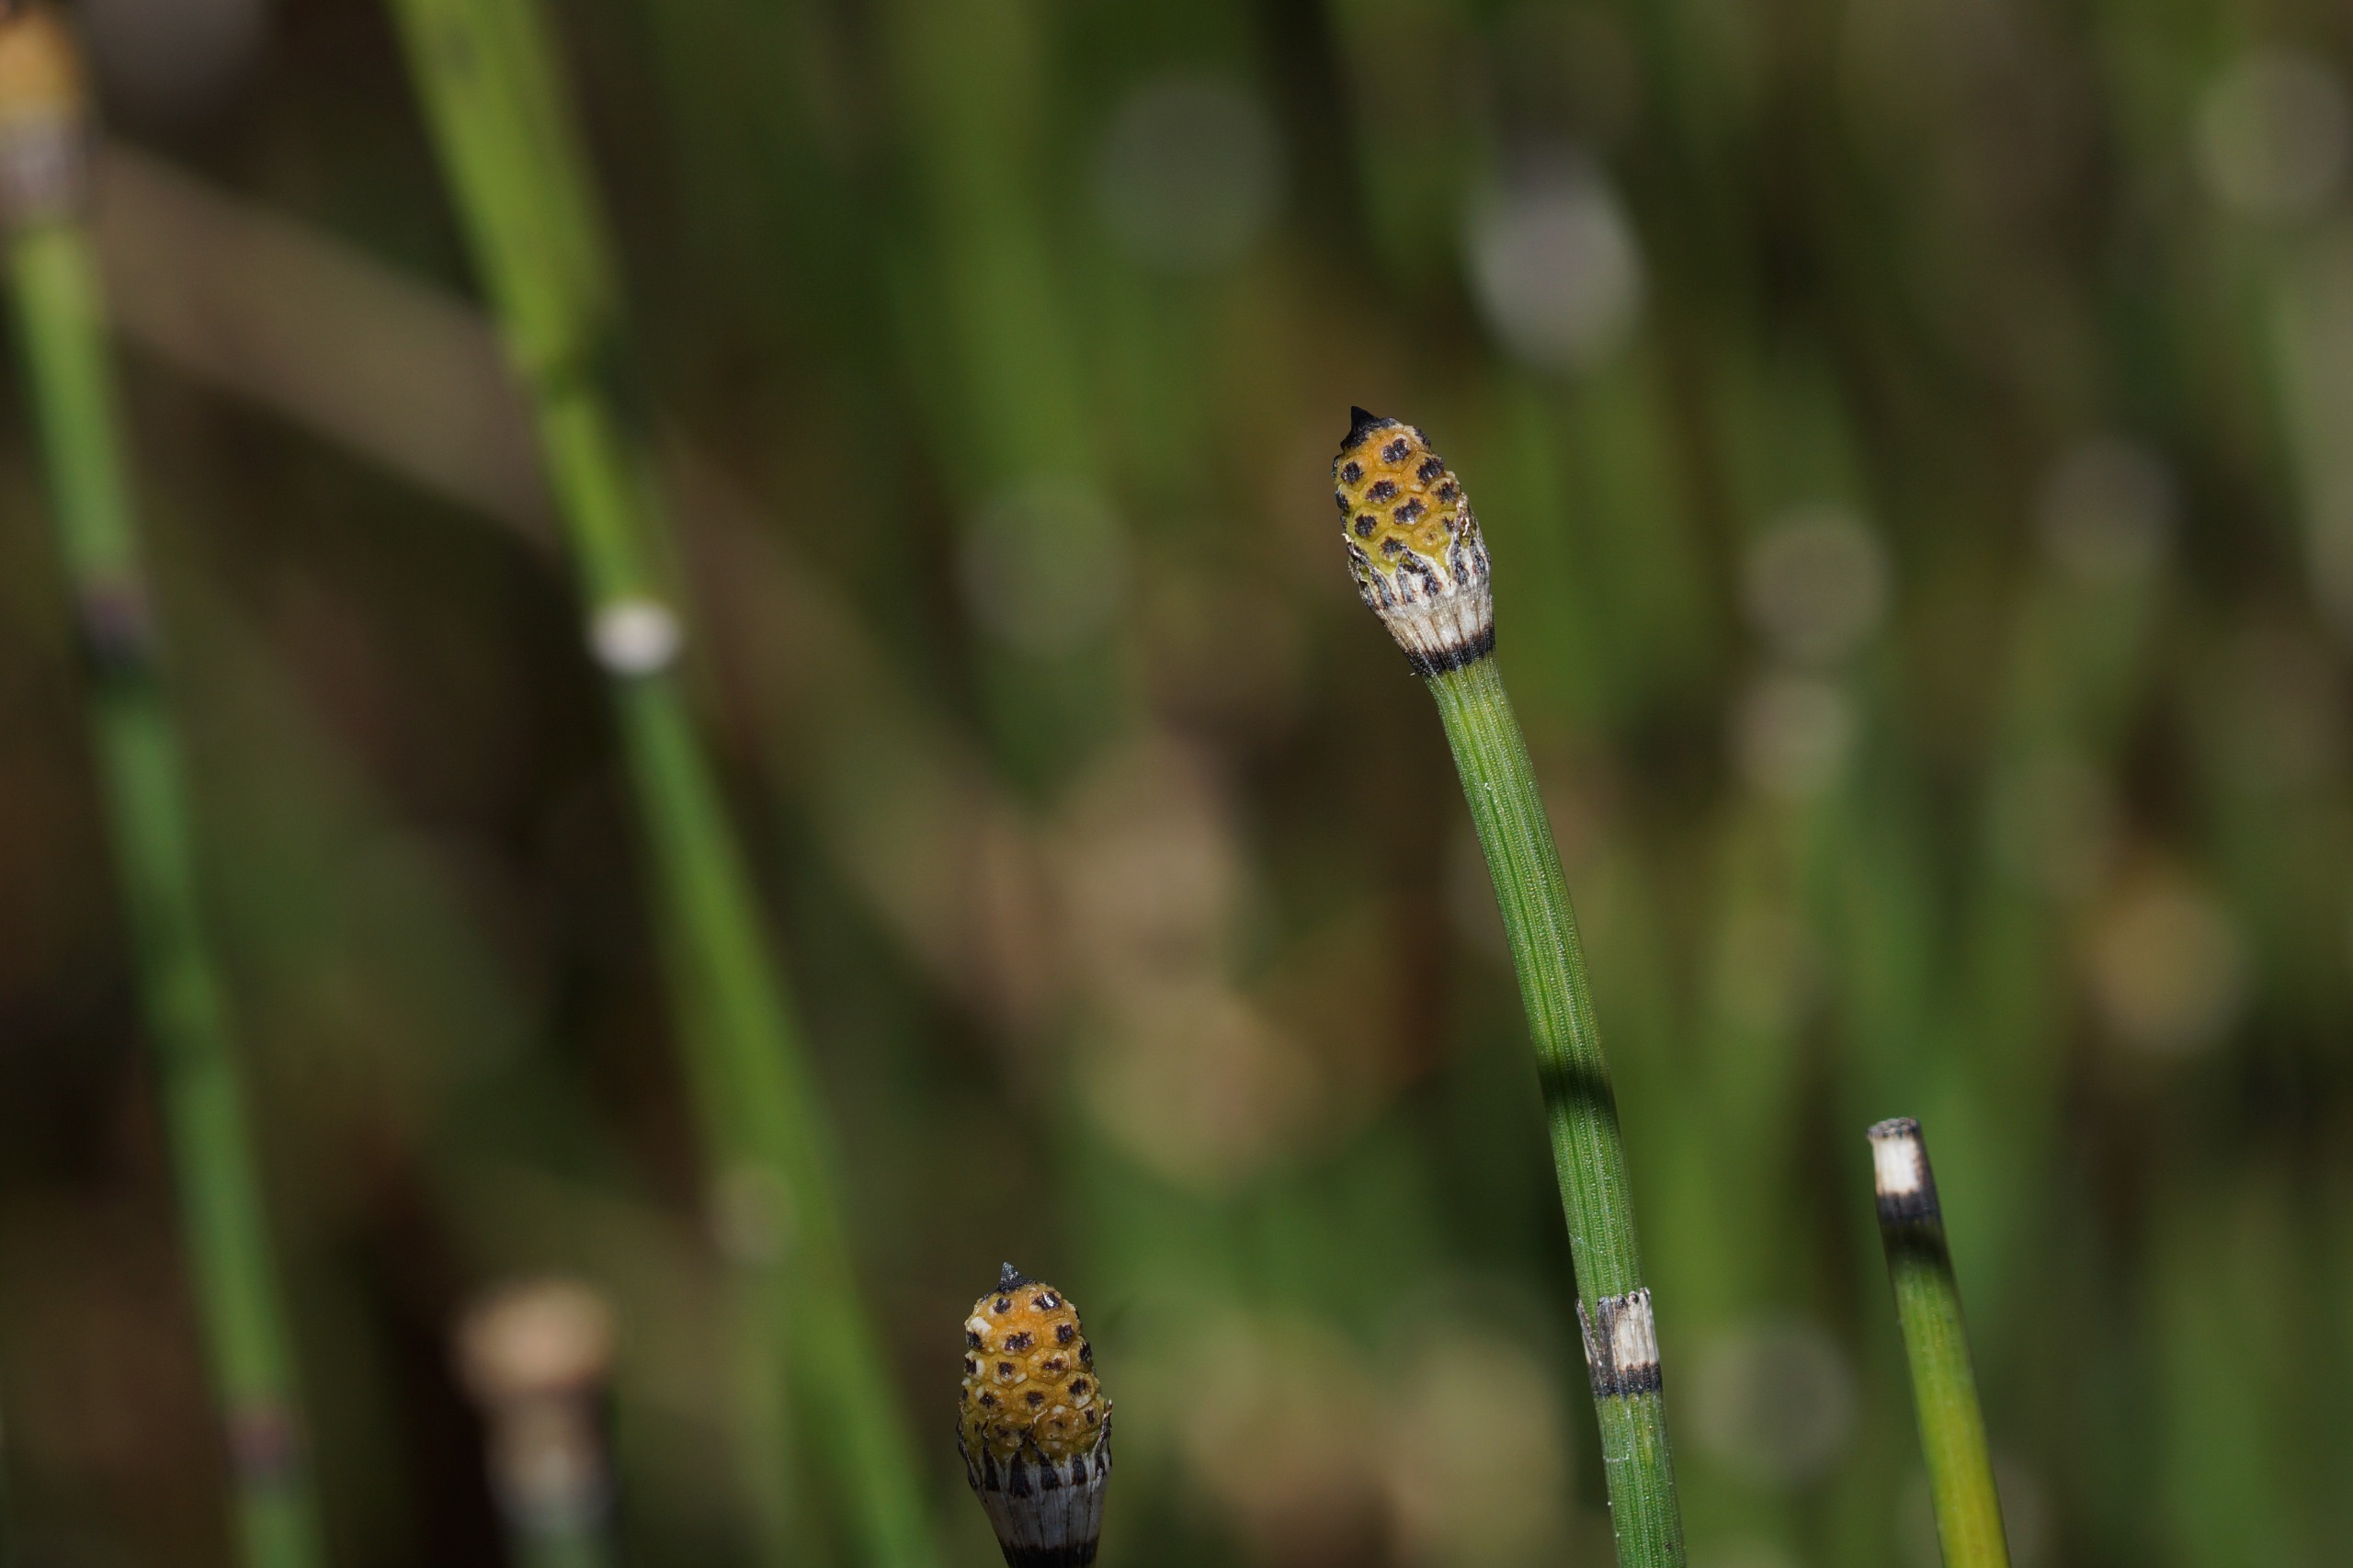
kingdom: Plantae
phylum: Tracheophyta
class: Polypodiopsida
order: Equisetales
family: Equisetaceae
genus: Equisetum
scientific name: Equisetum hyemale
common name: Skavgræs
